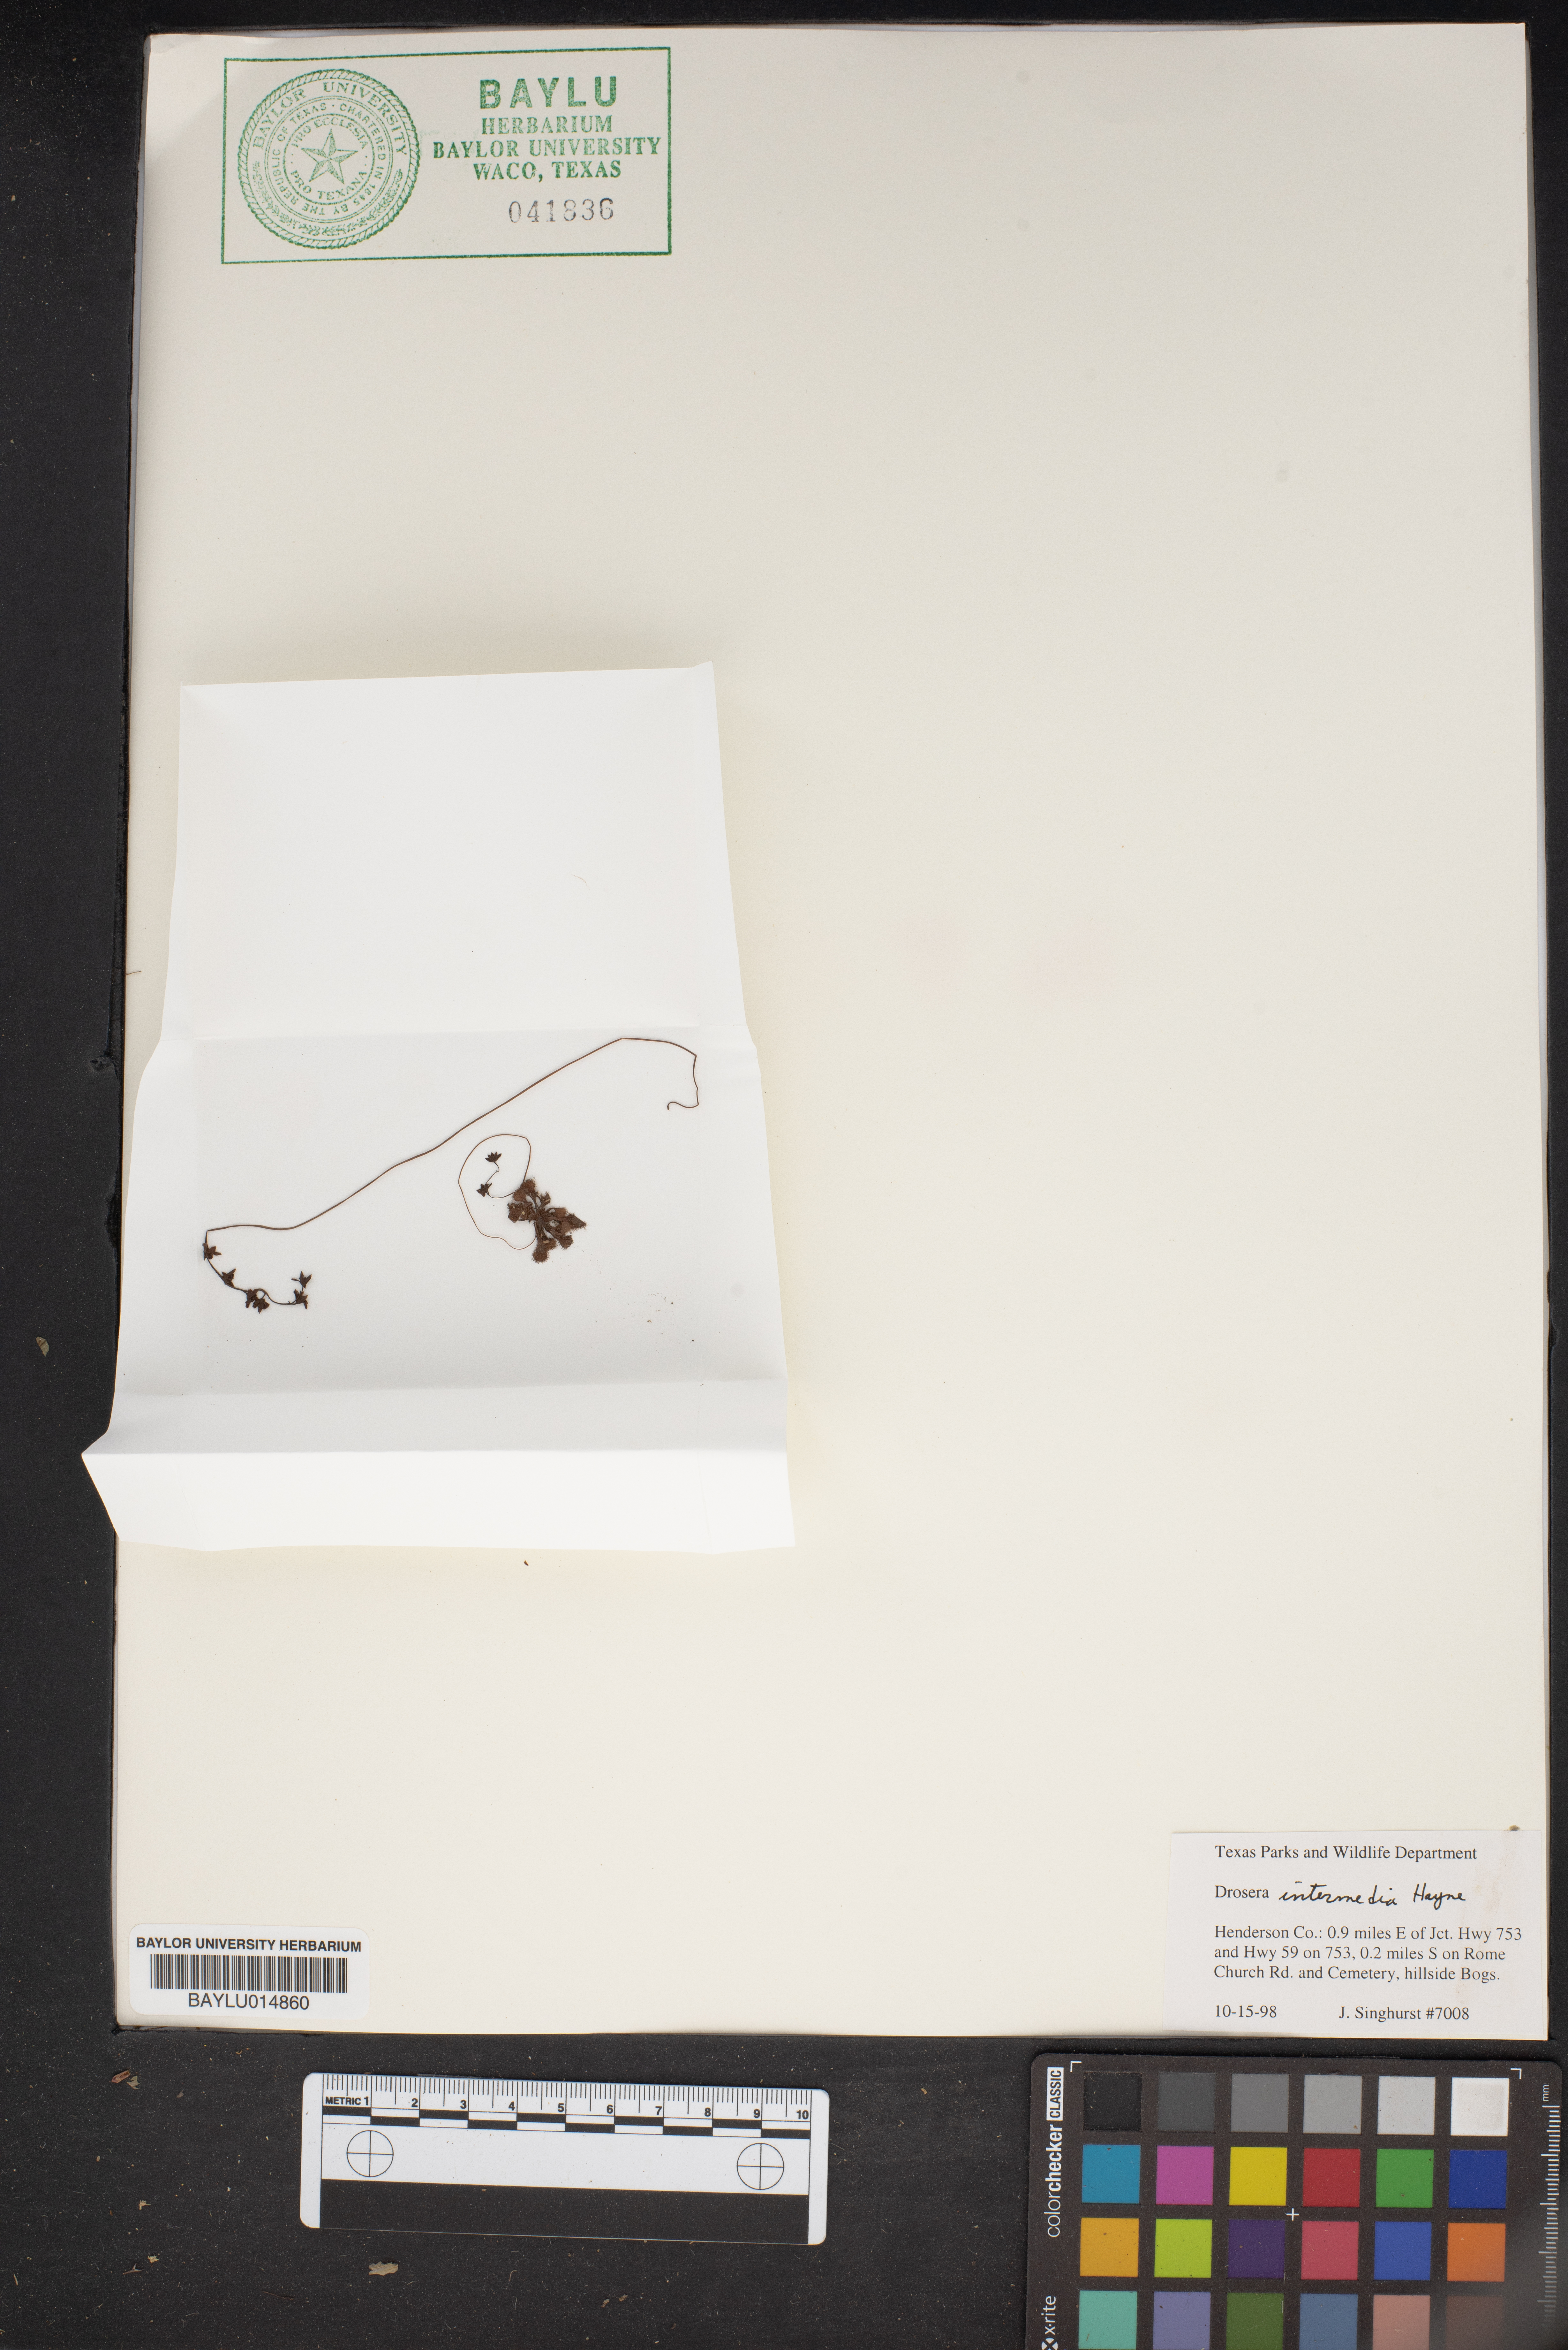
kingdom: Plantae
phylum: Tracheophyta
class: Magnoliopsida
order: Caryophyllales
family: Droseraceae
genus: Drosera
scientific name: Drosera intermedia
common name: Oblong-leaved sundew
